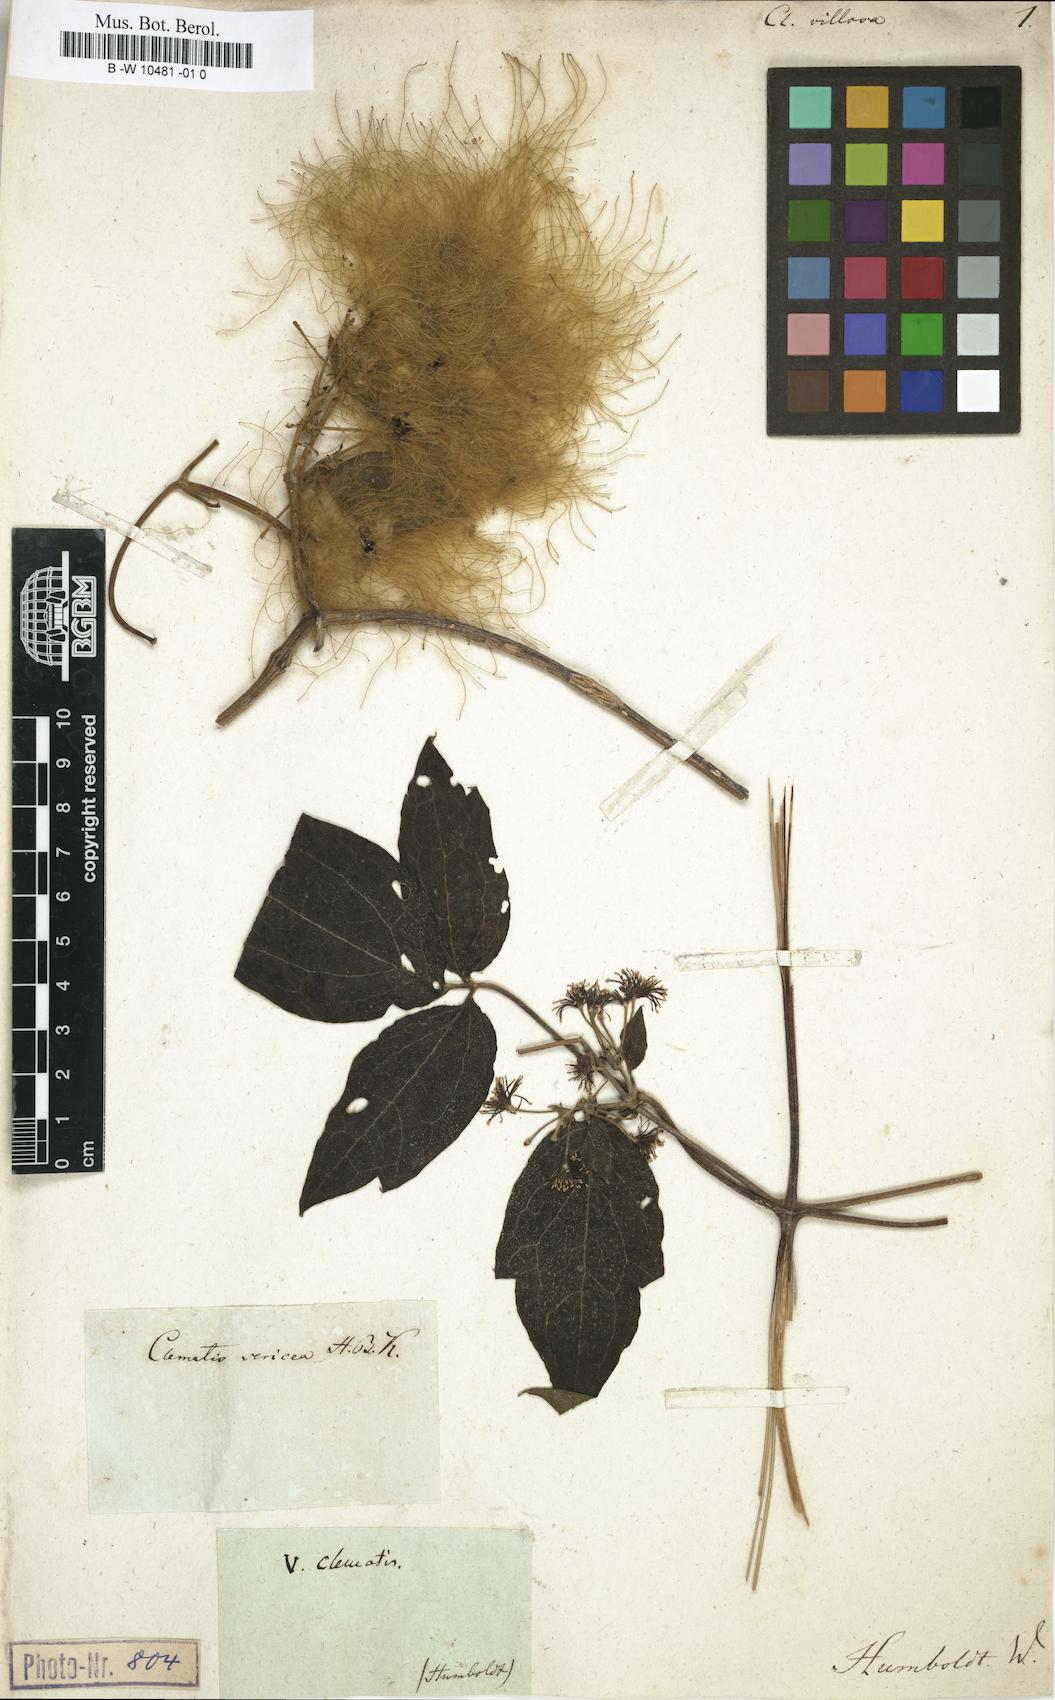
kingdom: Plantae
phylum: Tracheophyta
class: Magnoliopsida
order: Ranunculales
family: Ranunculaceae
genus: Clematis
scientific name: Clematis villosa
